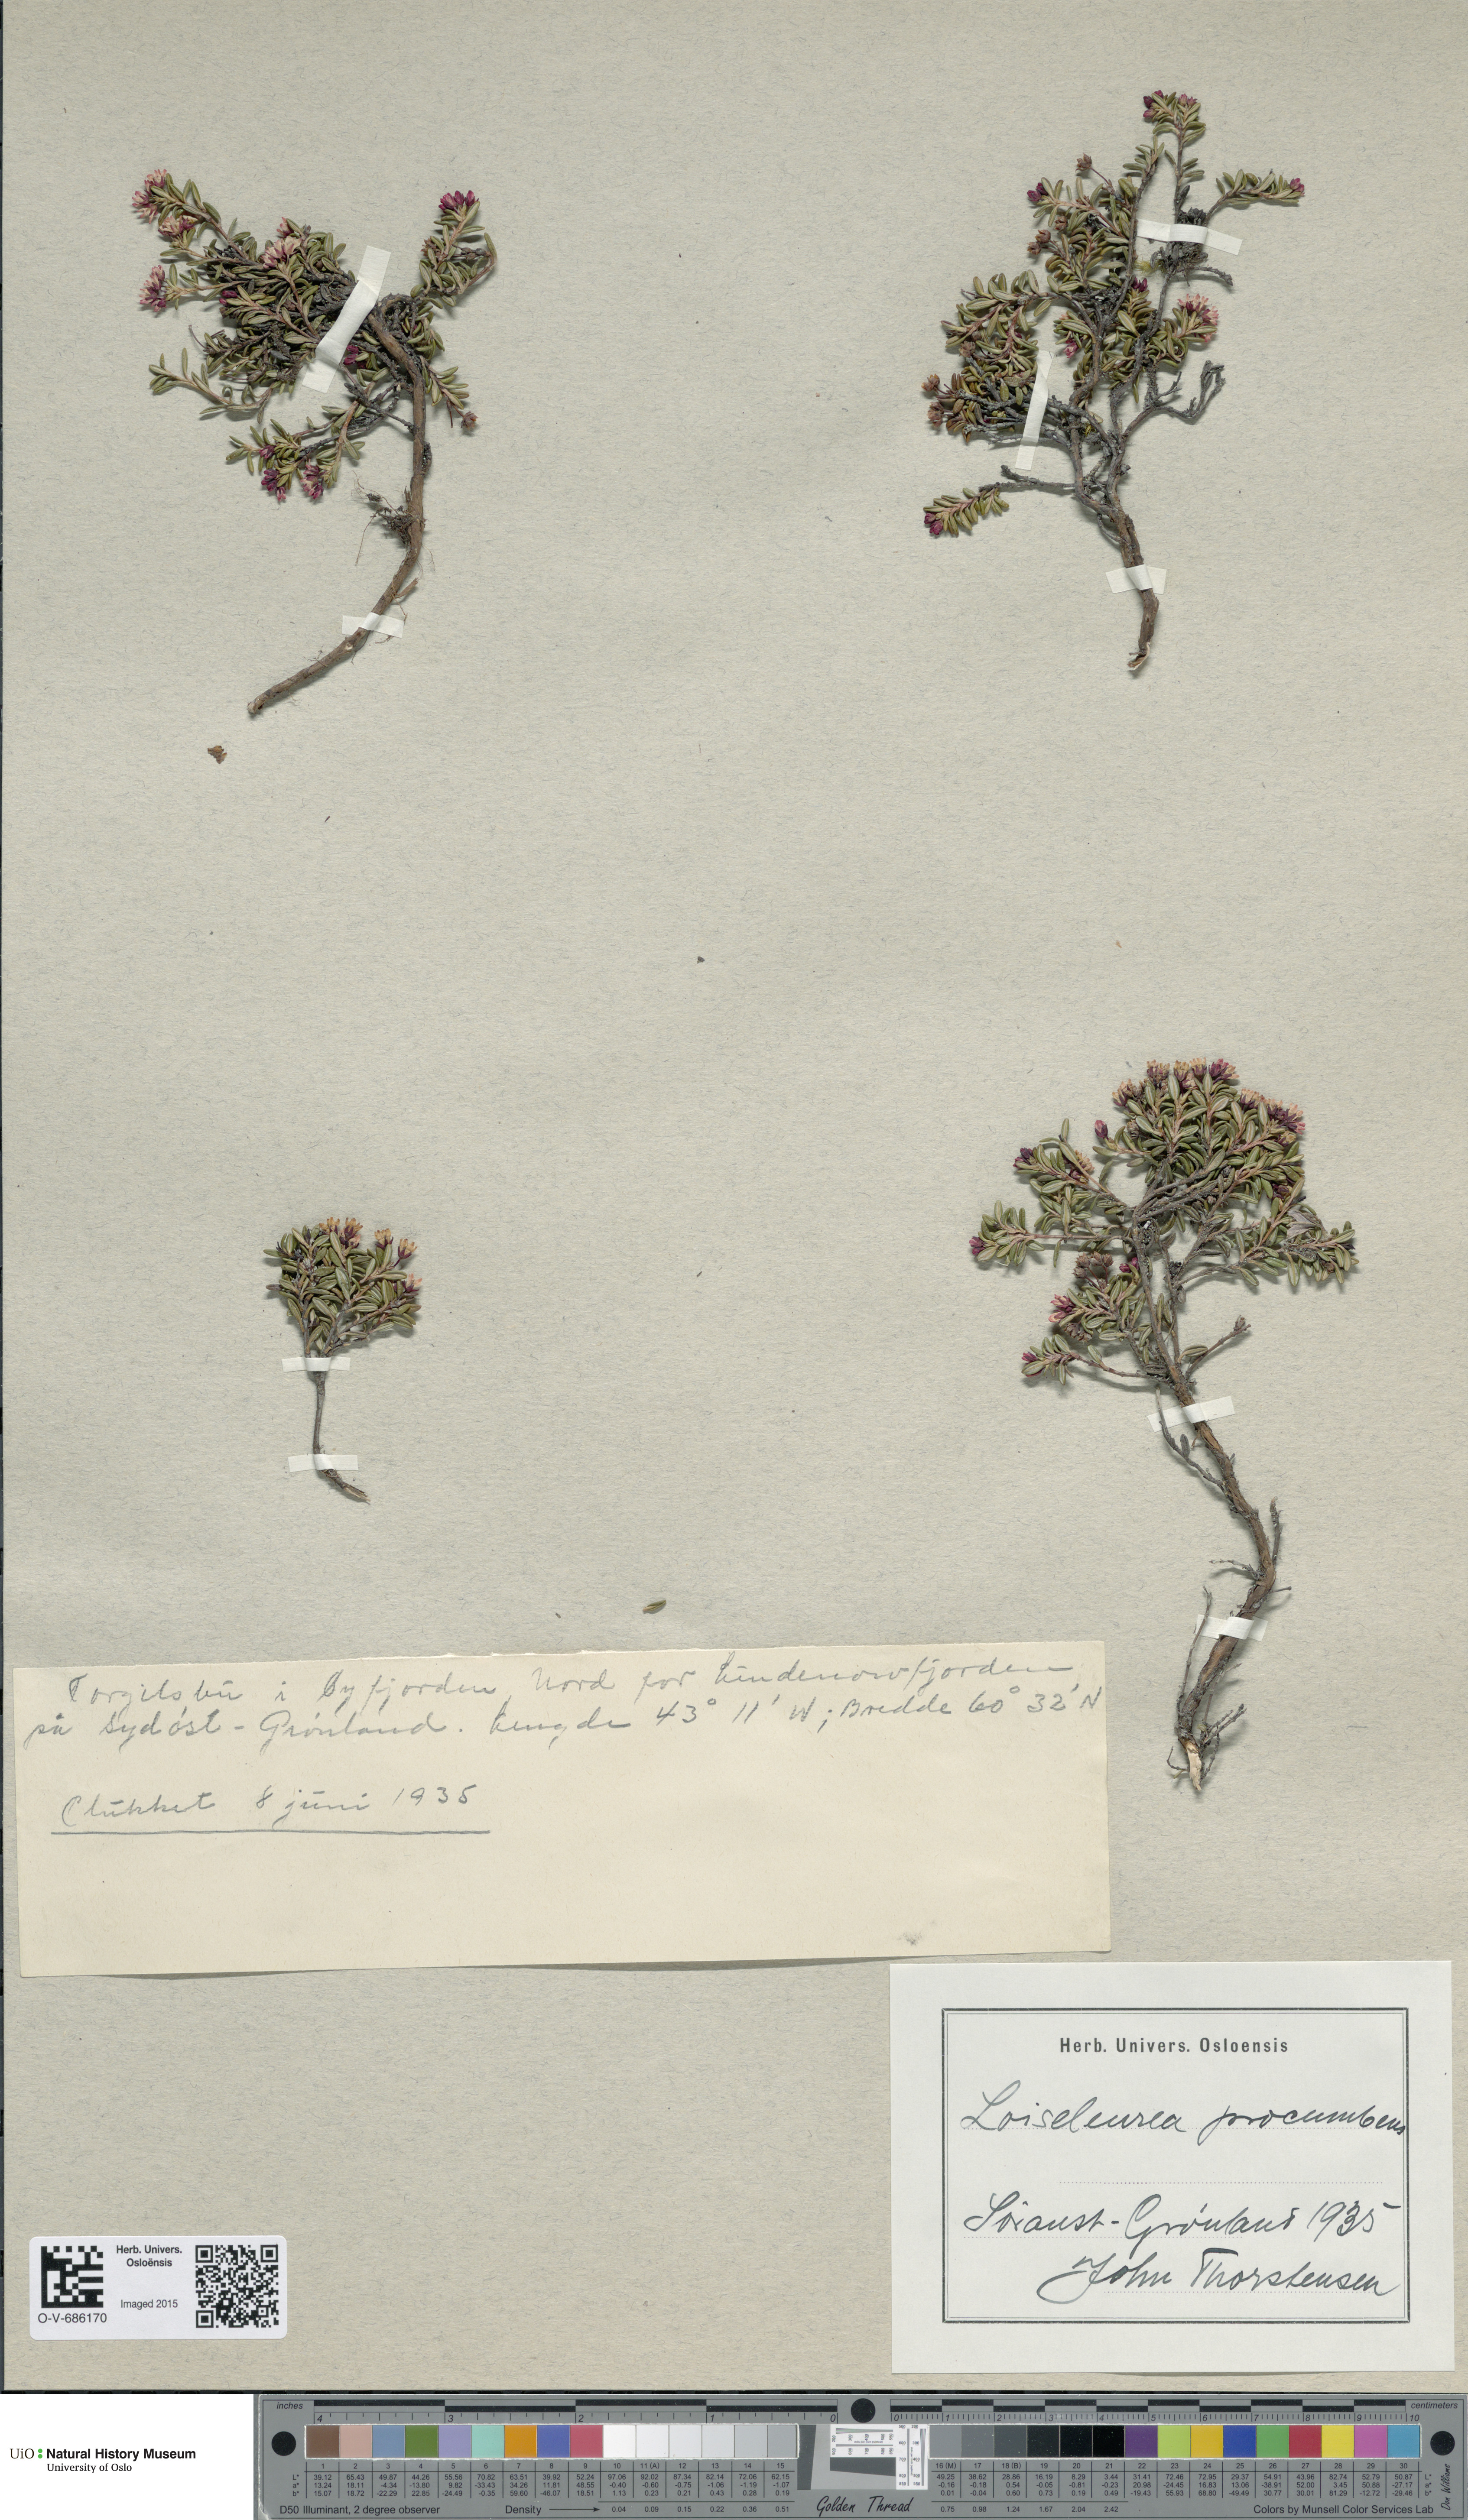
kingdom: Plantae
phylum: Tracheophyta
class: Magnoliopsida
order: Ericales
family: Ericaceae
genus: Kalmia
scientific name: Kalmia procumbens
